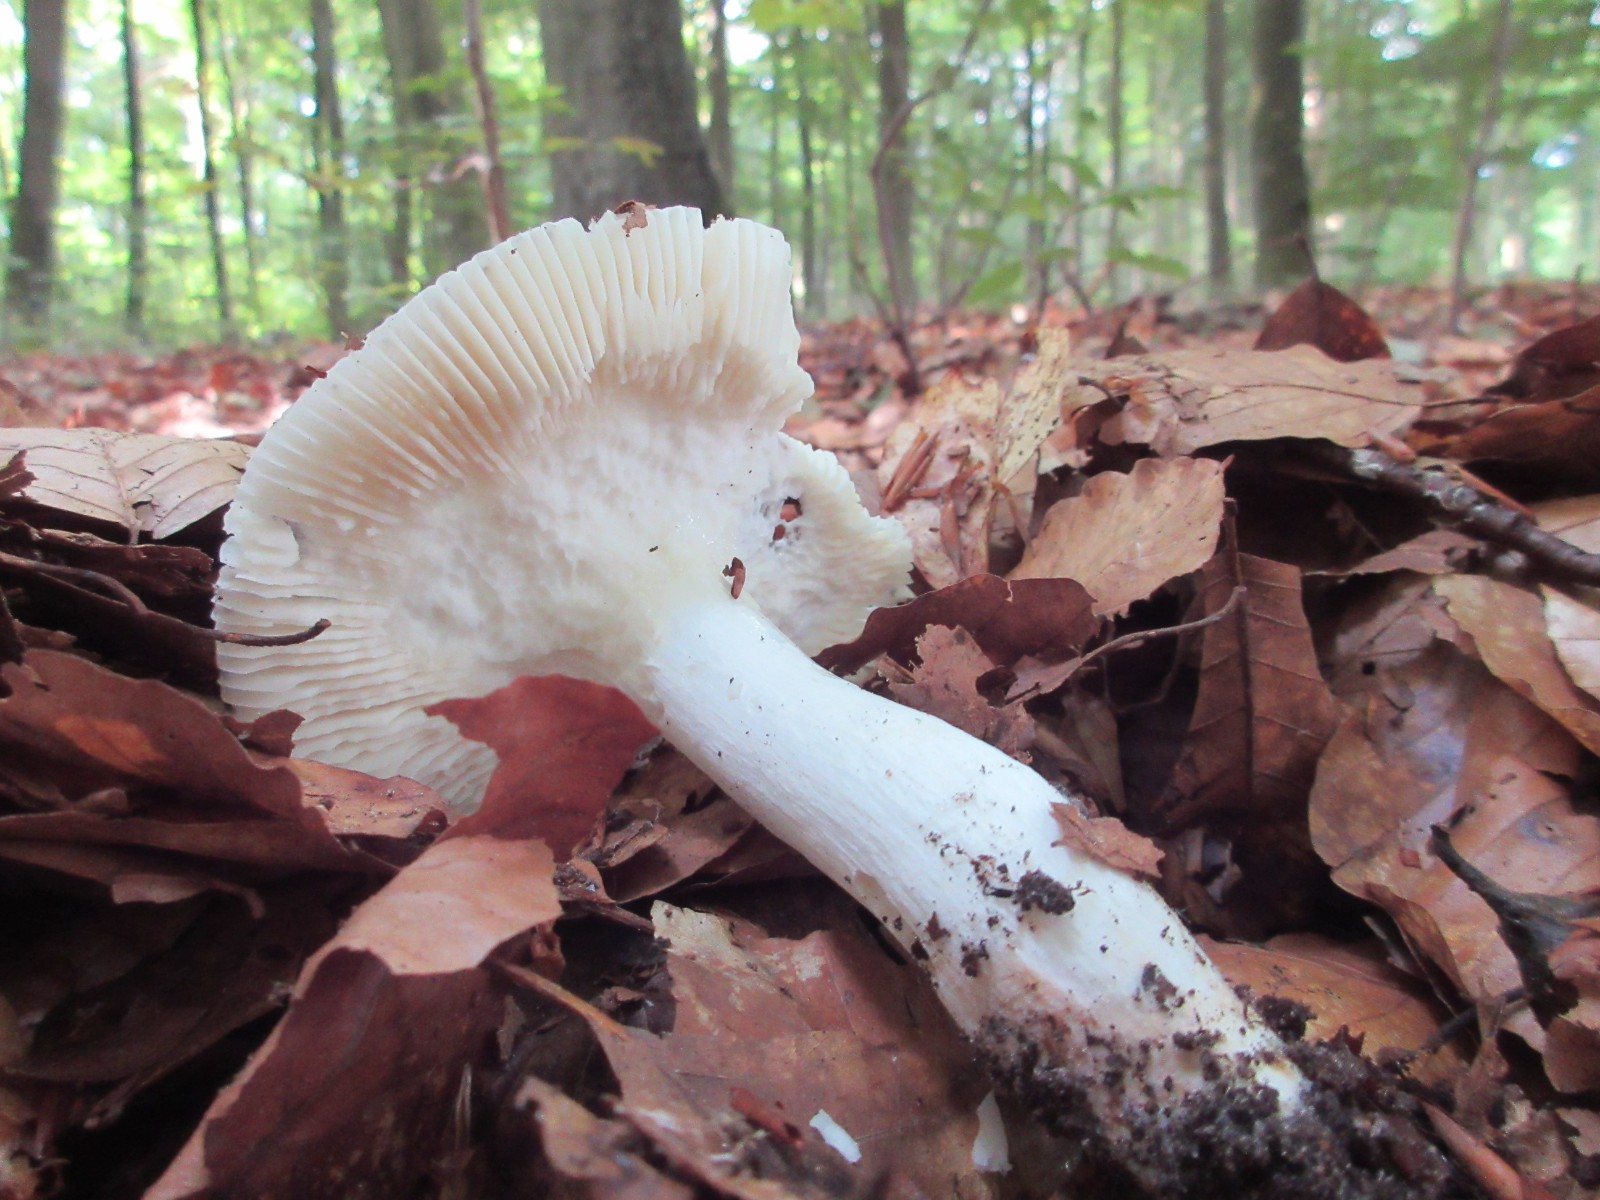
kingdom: Fungi
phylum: Basidiomycota
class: Agaricomycetes
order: Russulales
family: Russulaceae
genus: Russula
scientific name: Russula ionochlora
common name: violetgrøn skørhat
